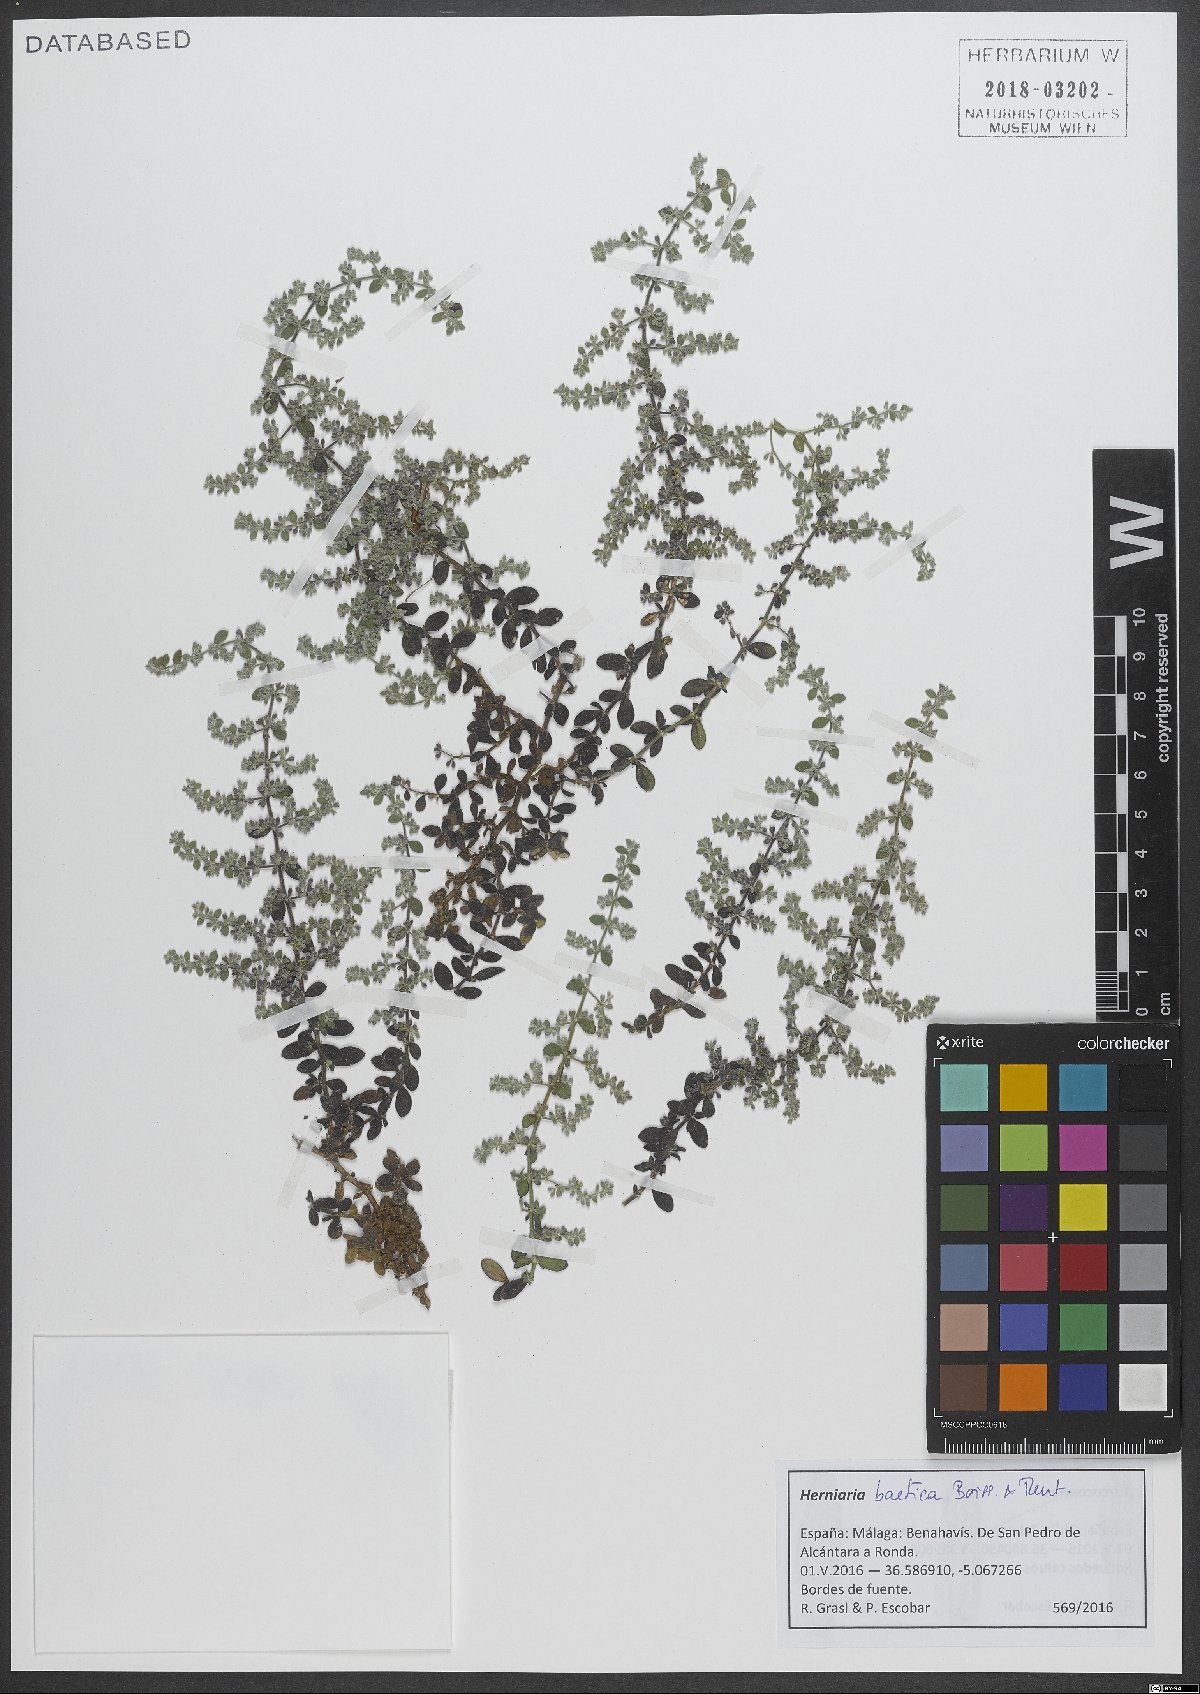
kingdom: Plantae
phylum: Tracheophyta
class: Magnoliopsida
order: Caryophyllales
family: Caryophyllaceae
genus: Herniaria
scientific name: Herniaria baetica
